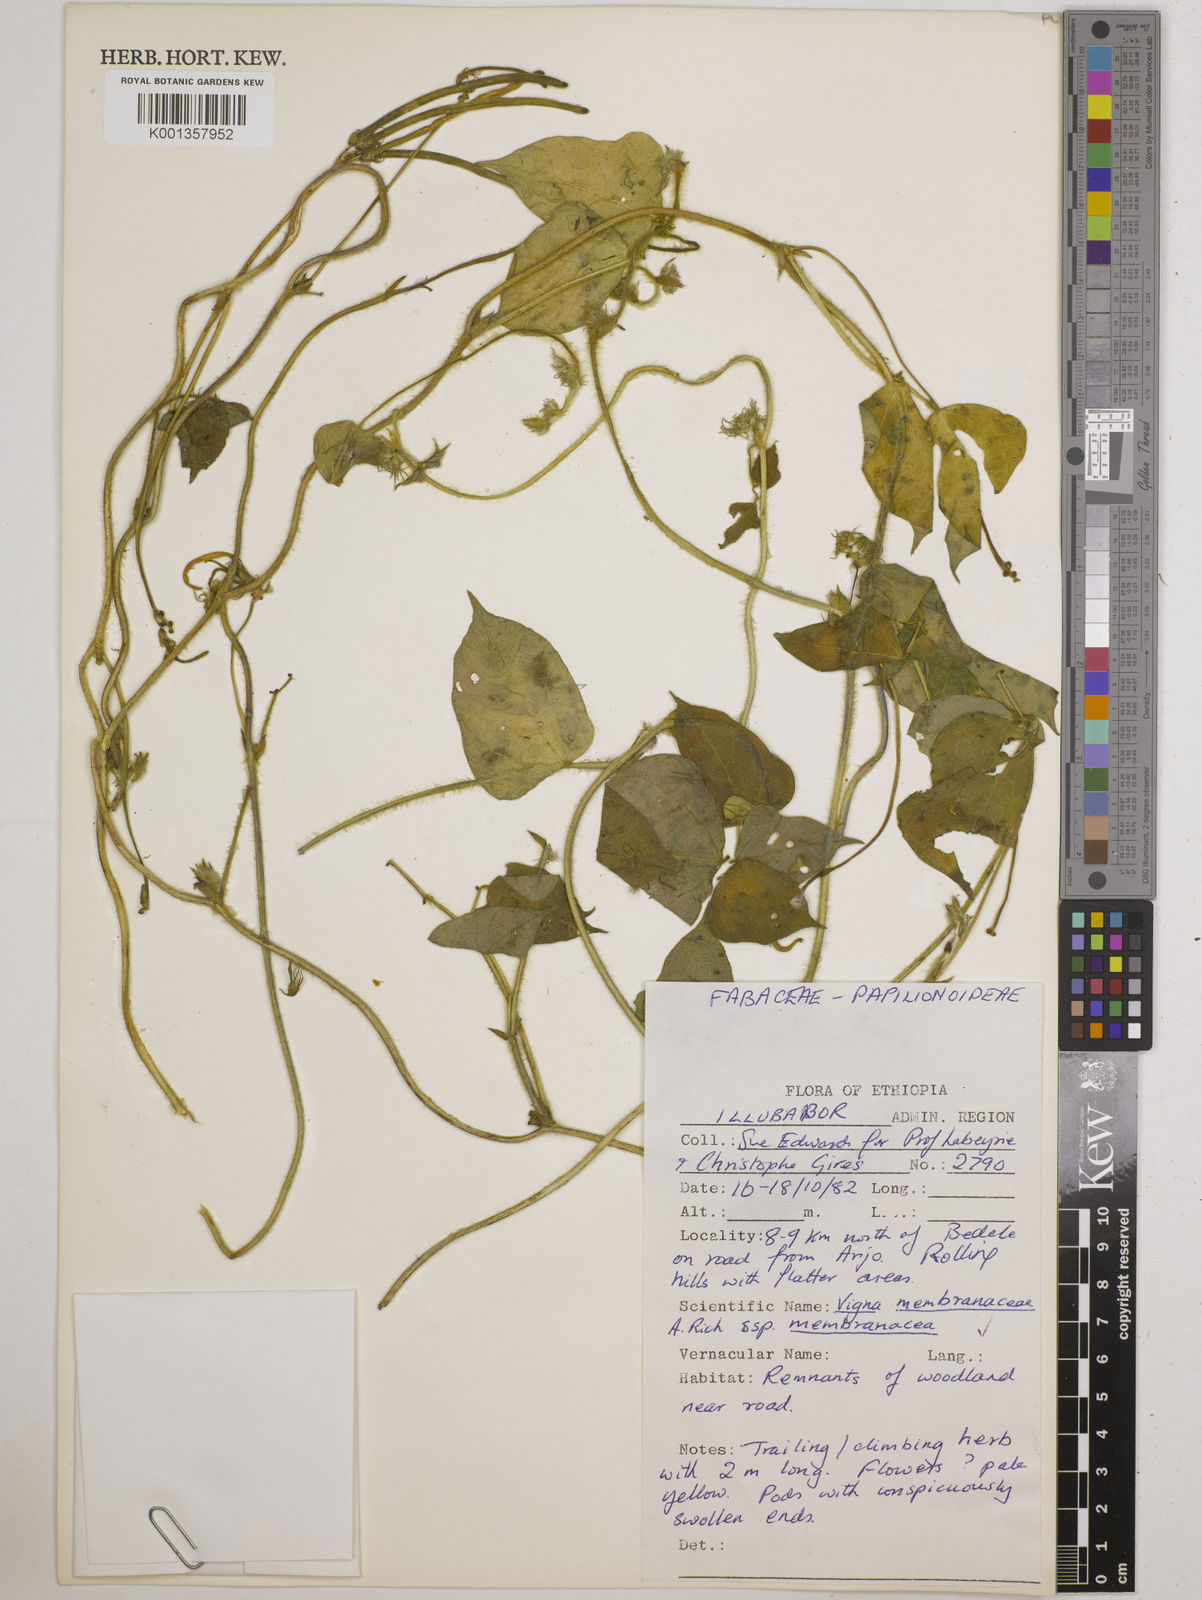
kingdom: Plantae
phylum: Tracheophyta
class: Magnoliopsida
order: Fabales
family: Fabaceae
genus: Vigna
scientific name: Vigna membranacea
